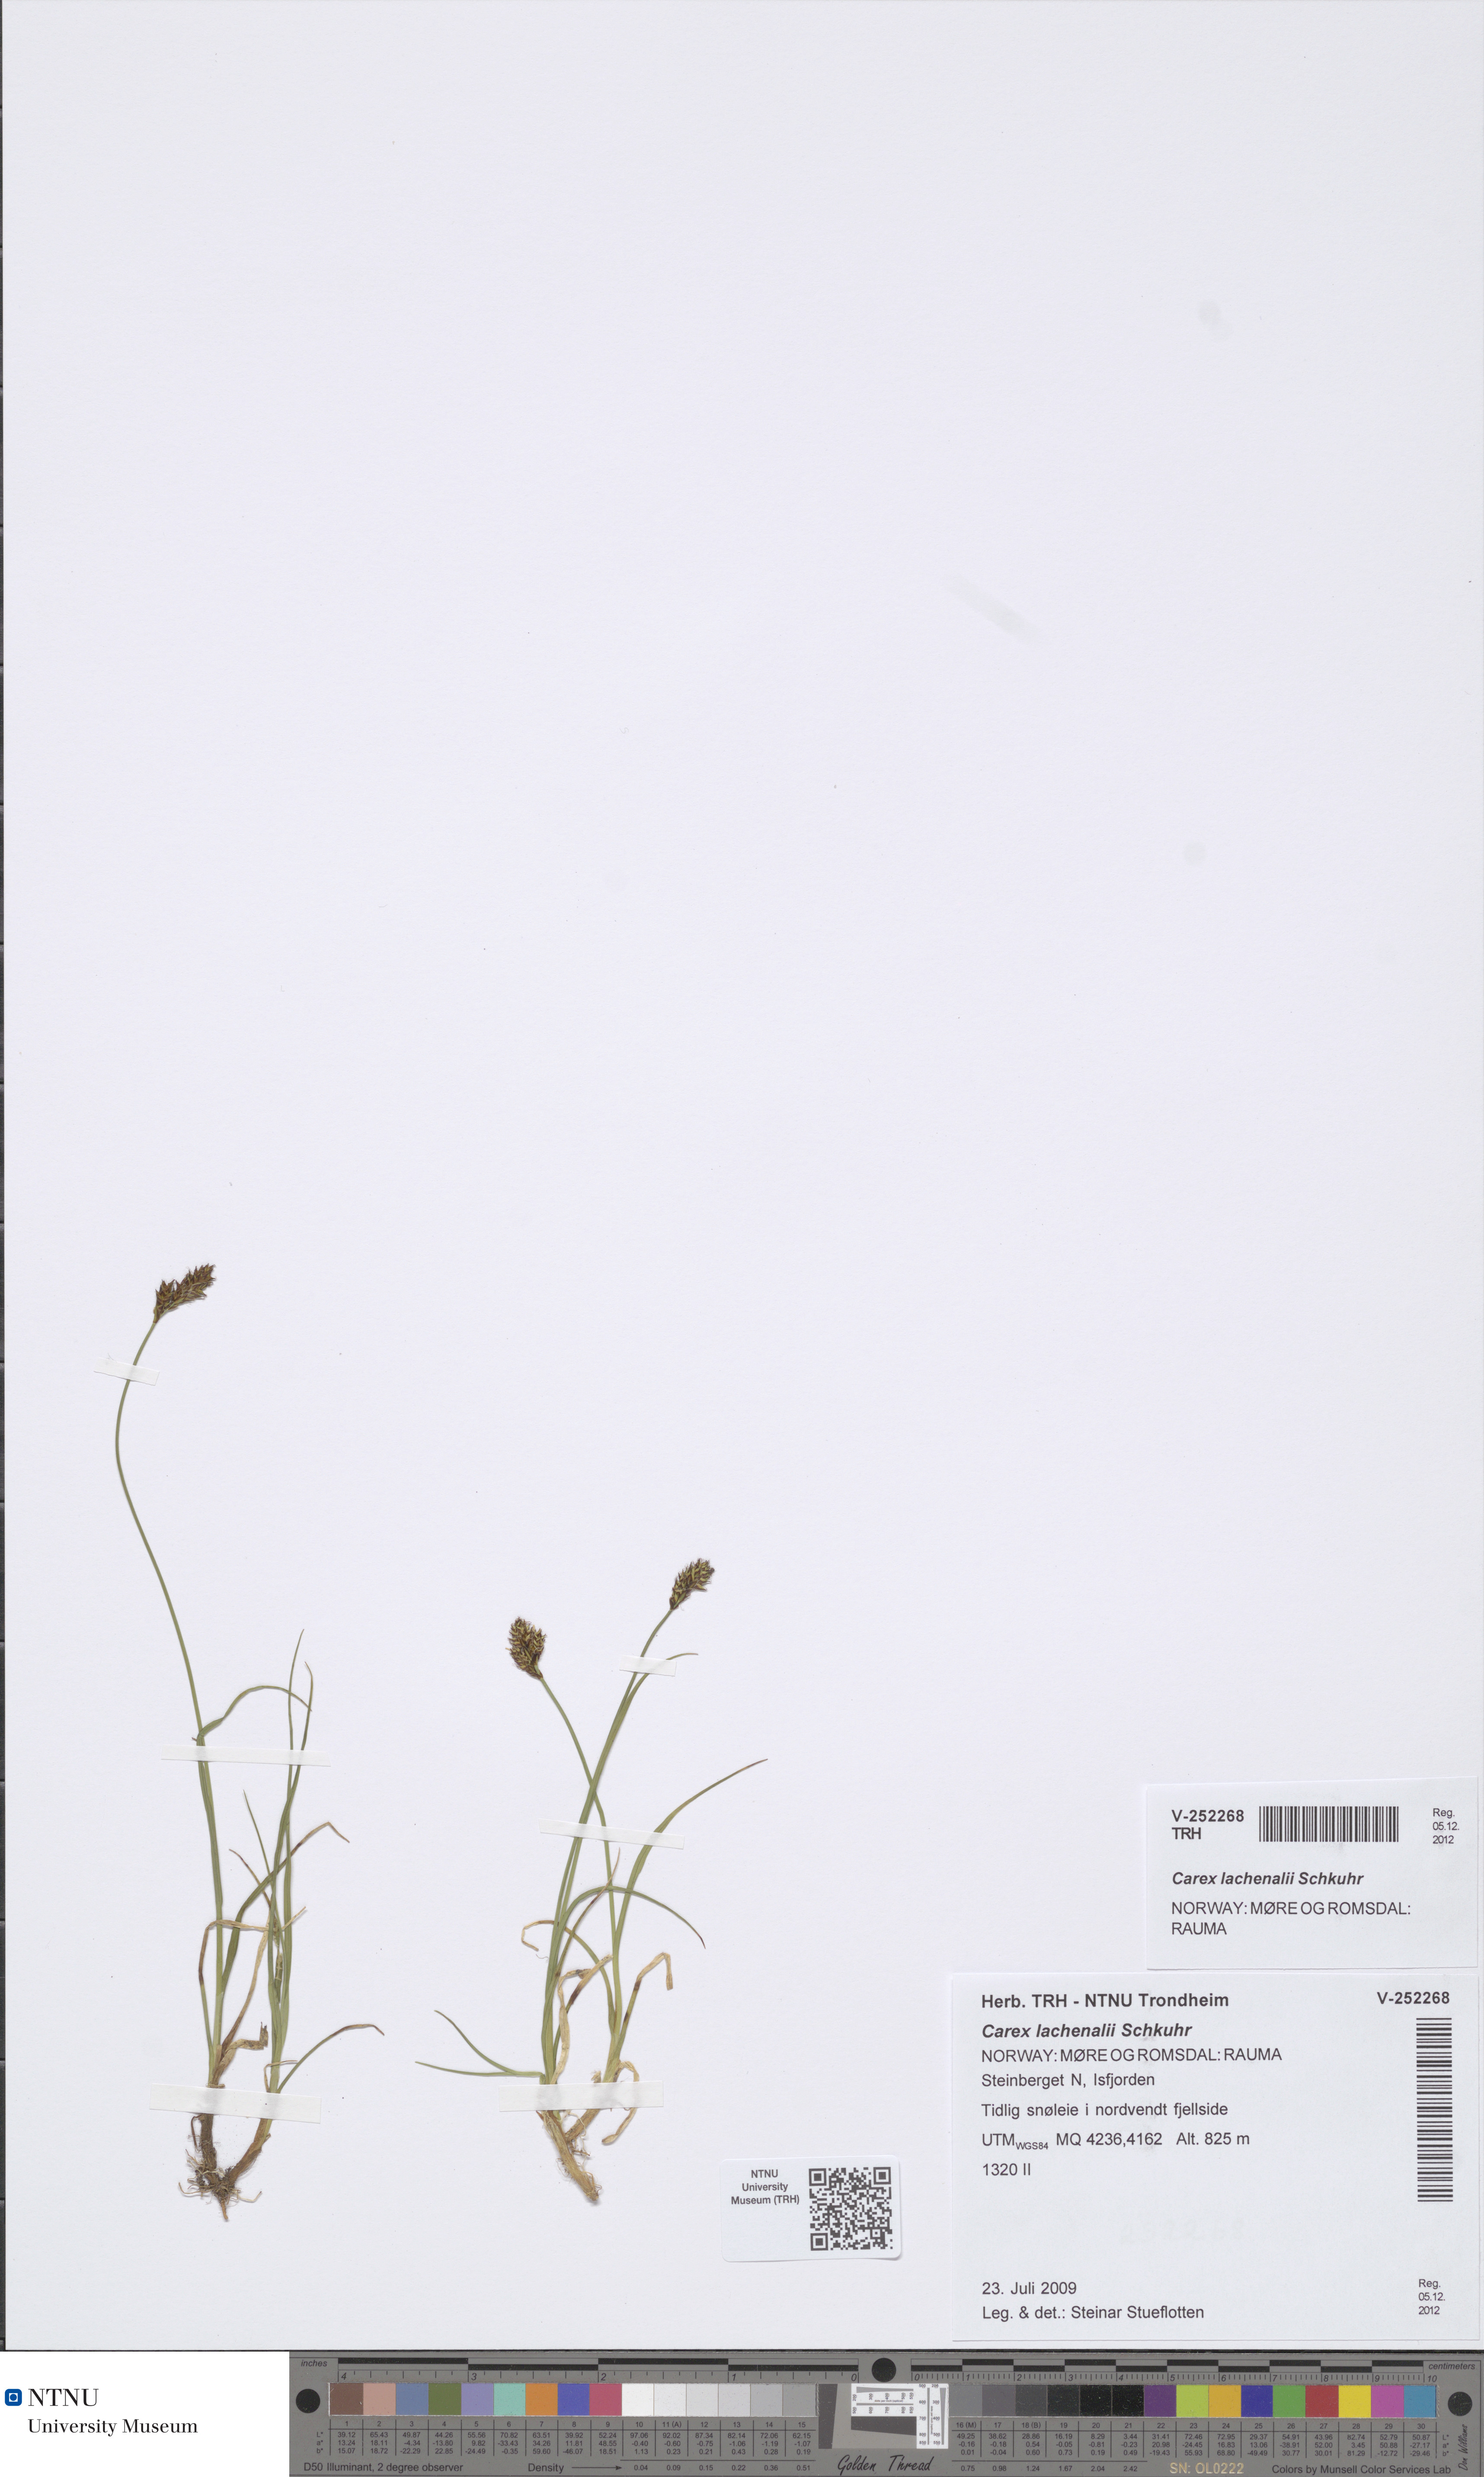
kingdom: Plantae
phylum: Tracheophyta
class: Liliopsida
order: Poales
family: Cyperaceae
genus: Carex
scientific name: Carex lachenalii
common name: Hare's-foot sedge
